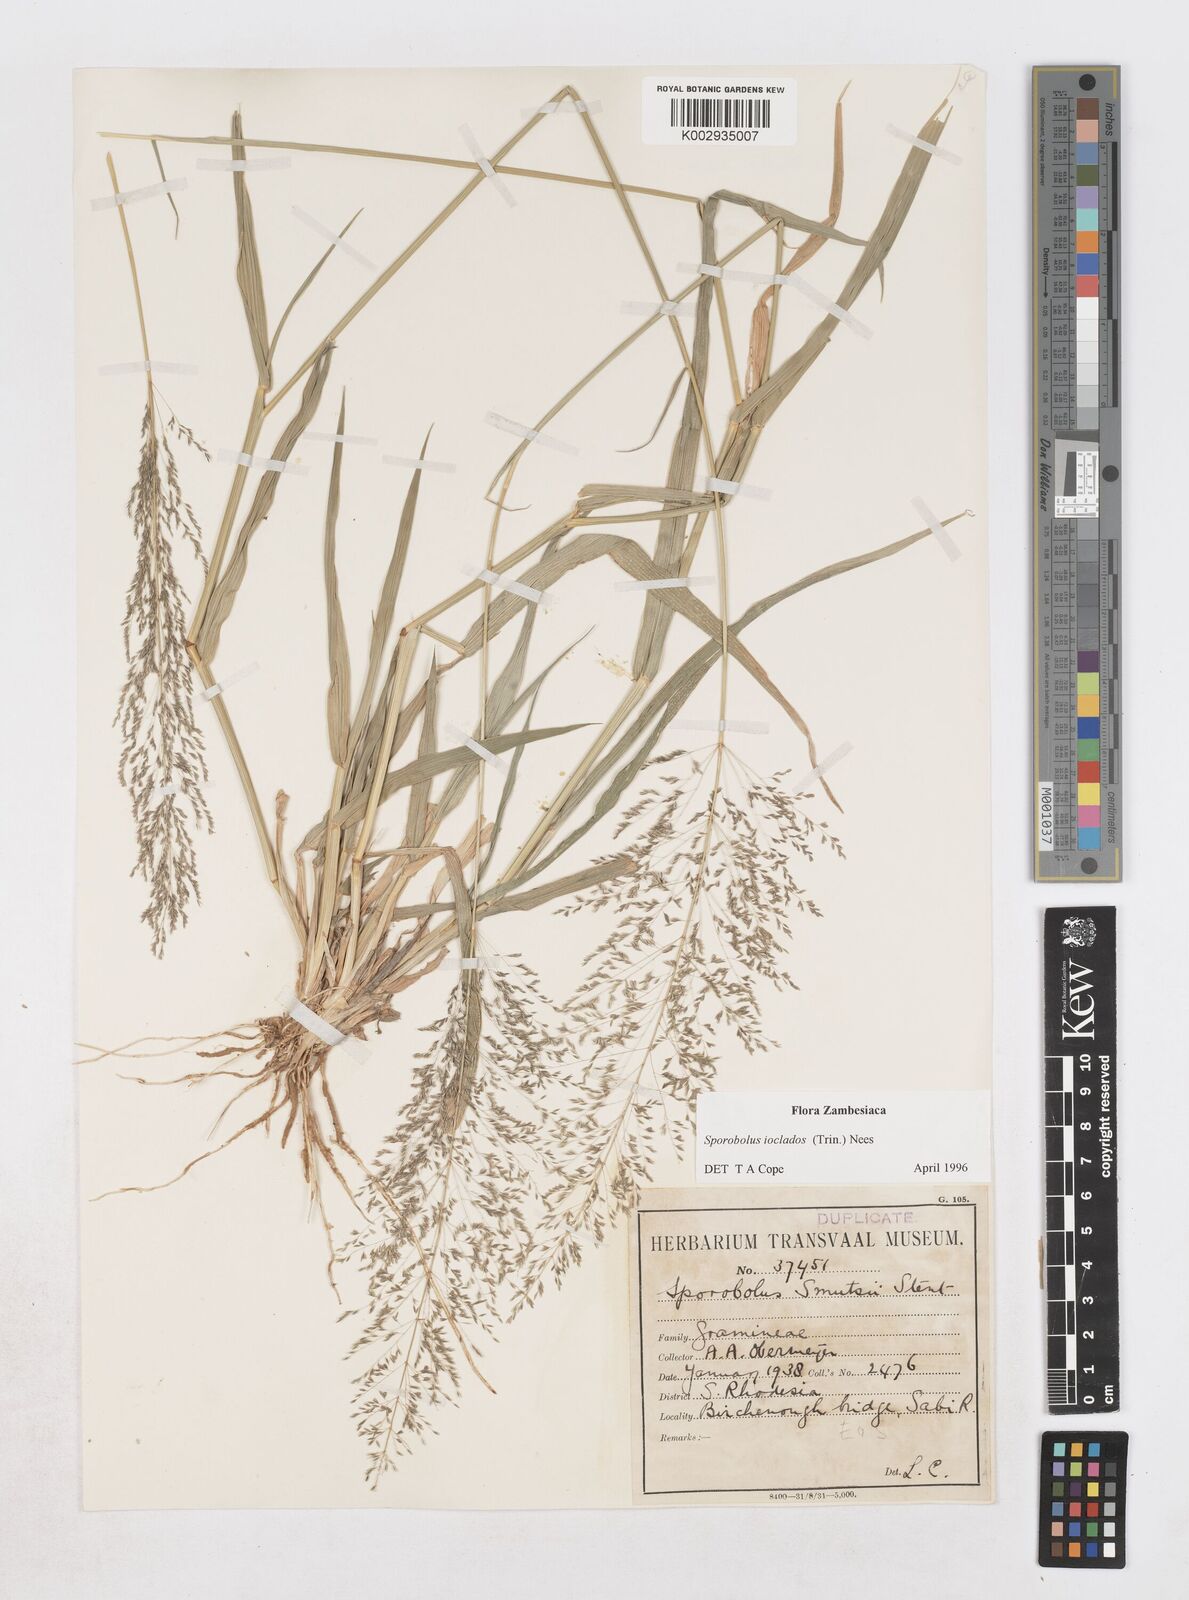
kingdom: Plantae
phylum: Tracheophyta
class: Liliopsida
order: Poales
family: Poaceae
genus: Sporobolus
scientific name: Sporobolus ioclados
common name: Pan dropseed
